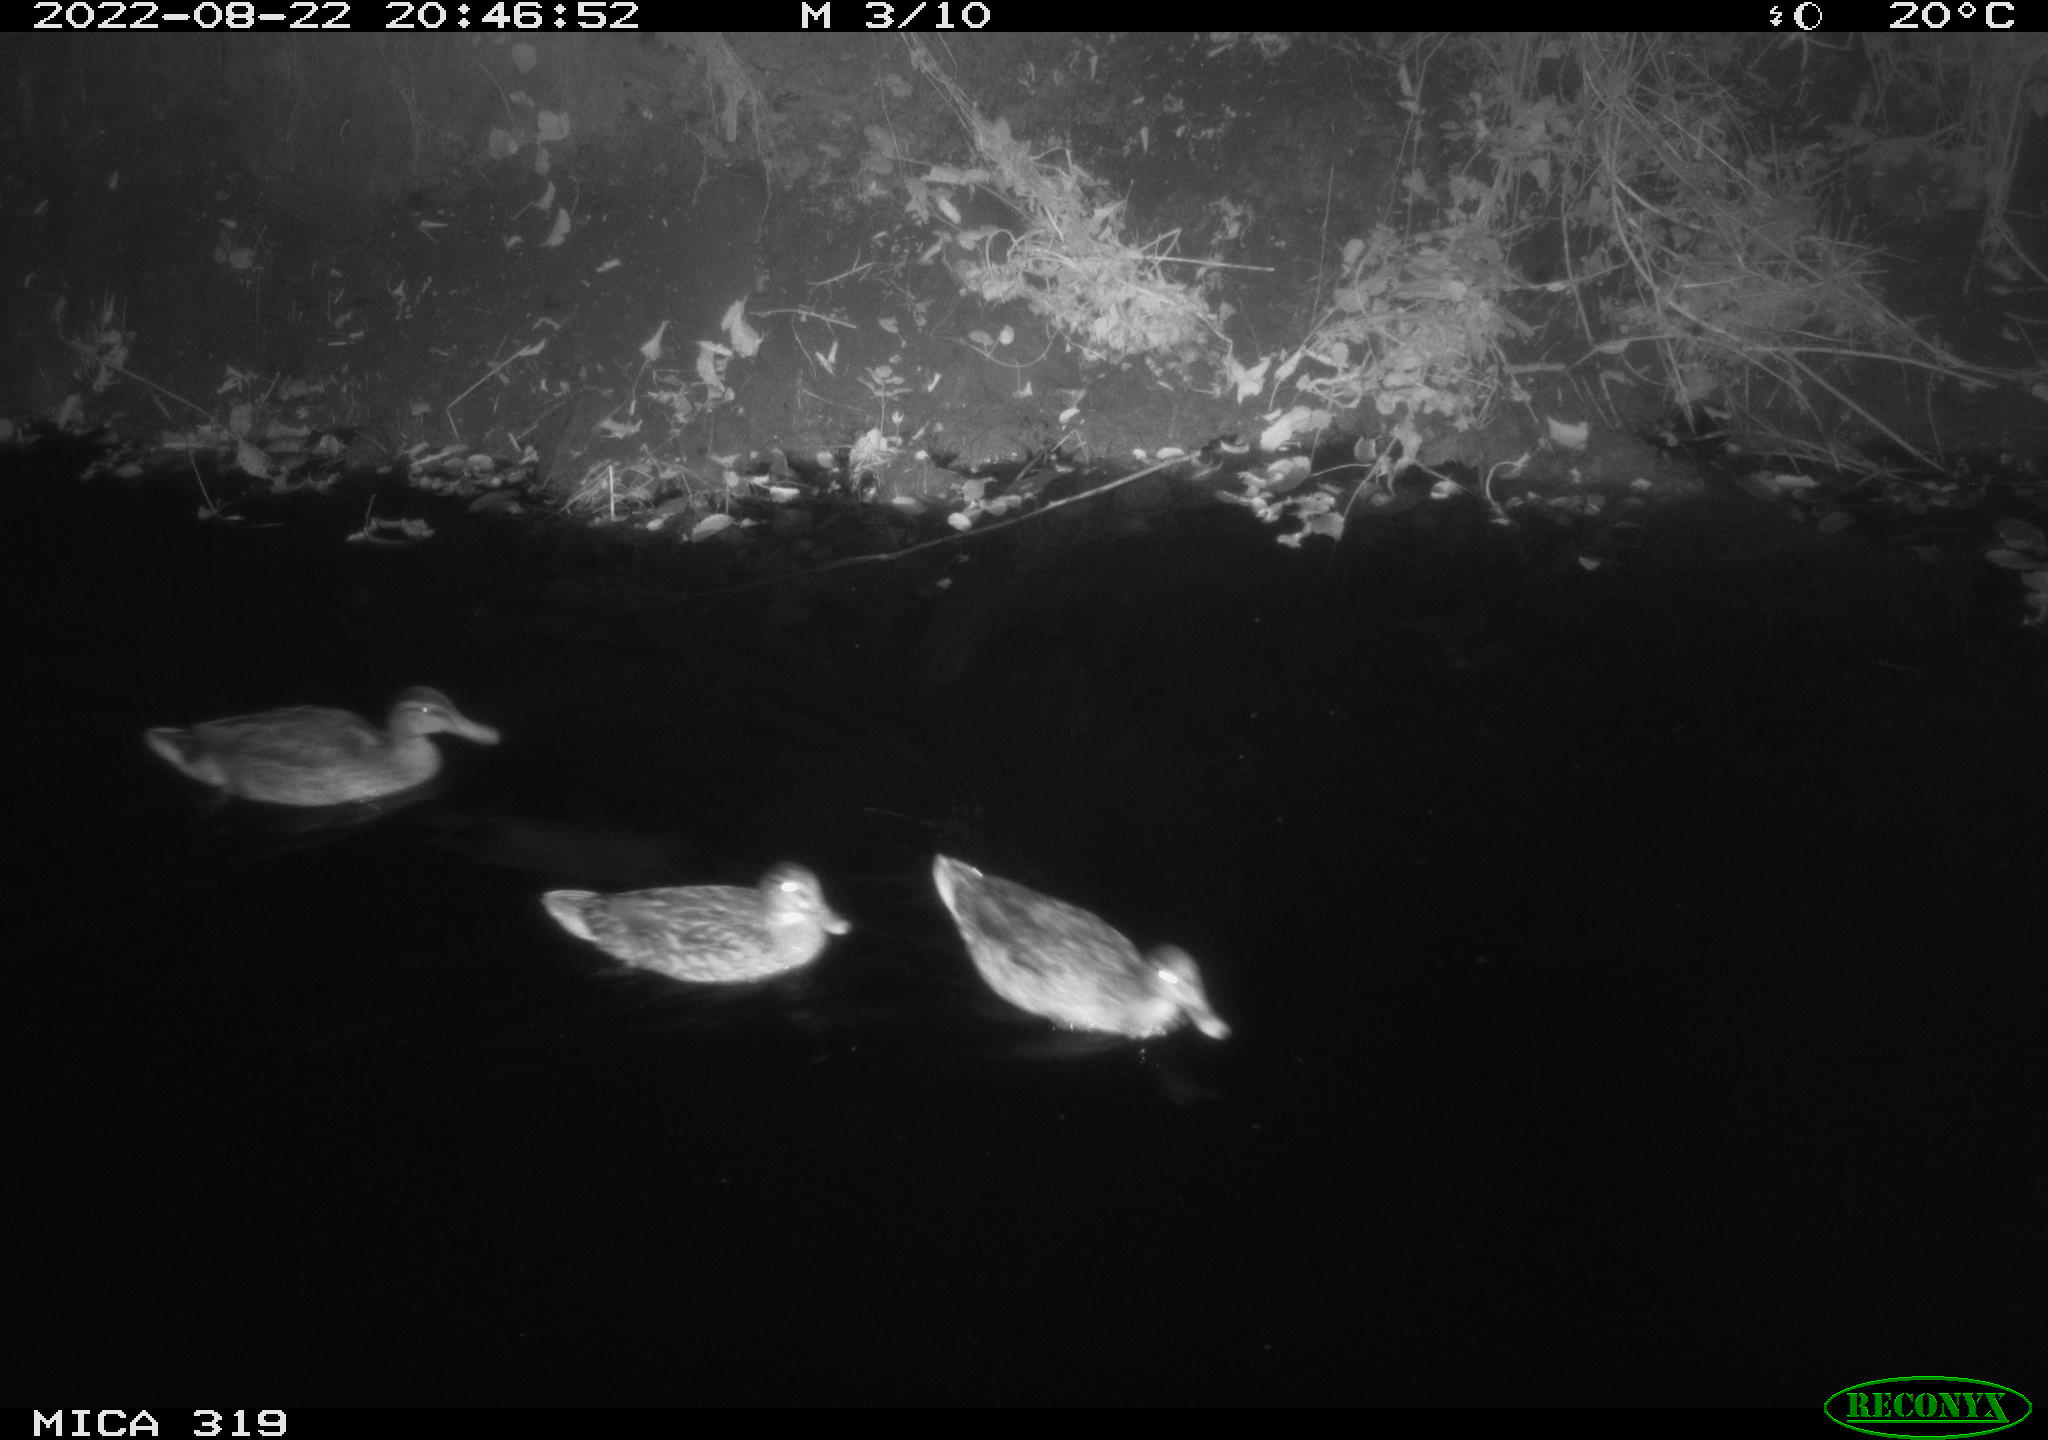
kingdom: Animalia
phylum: Chordata
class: Aves
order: Anseriformes
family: Anatidae
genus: Anas
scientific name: Anas
